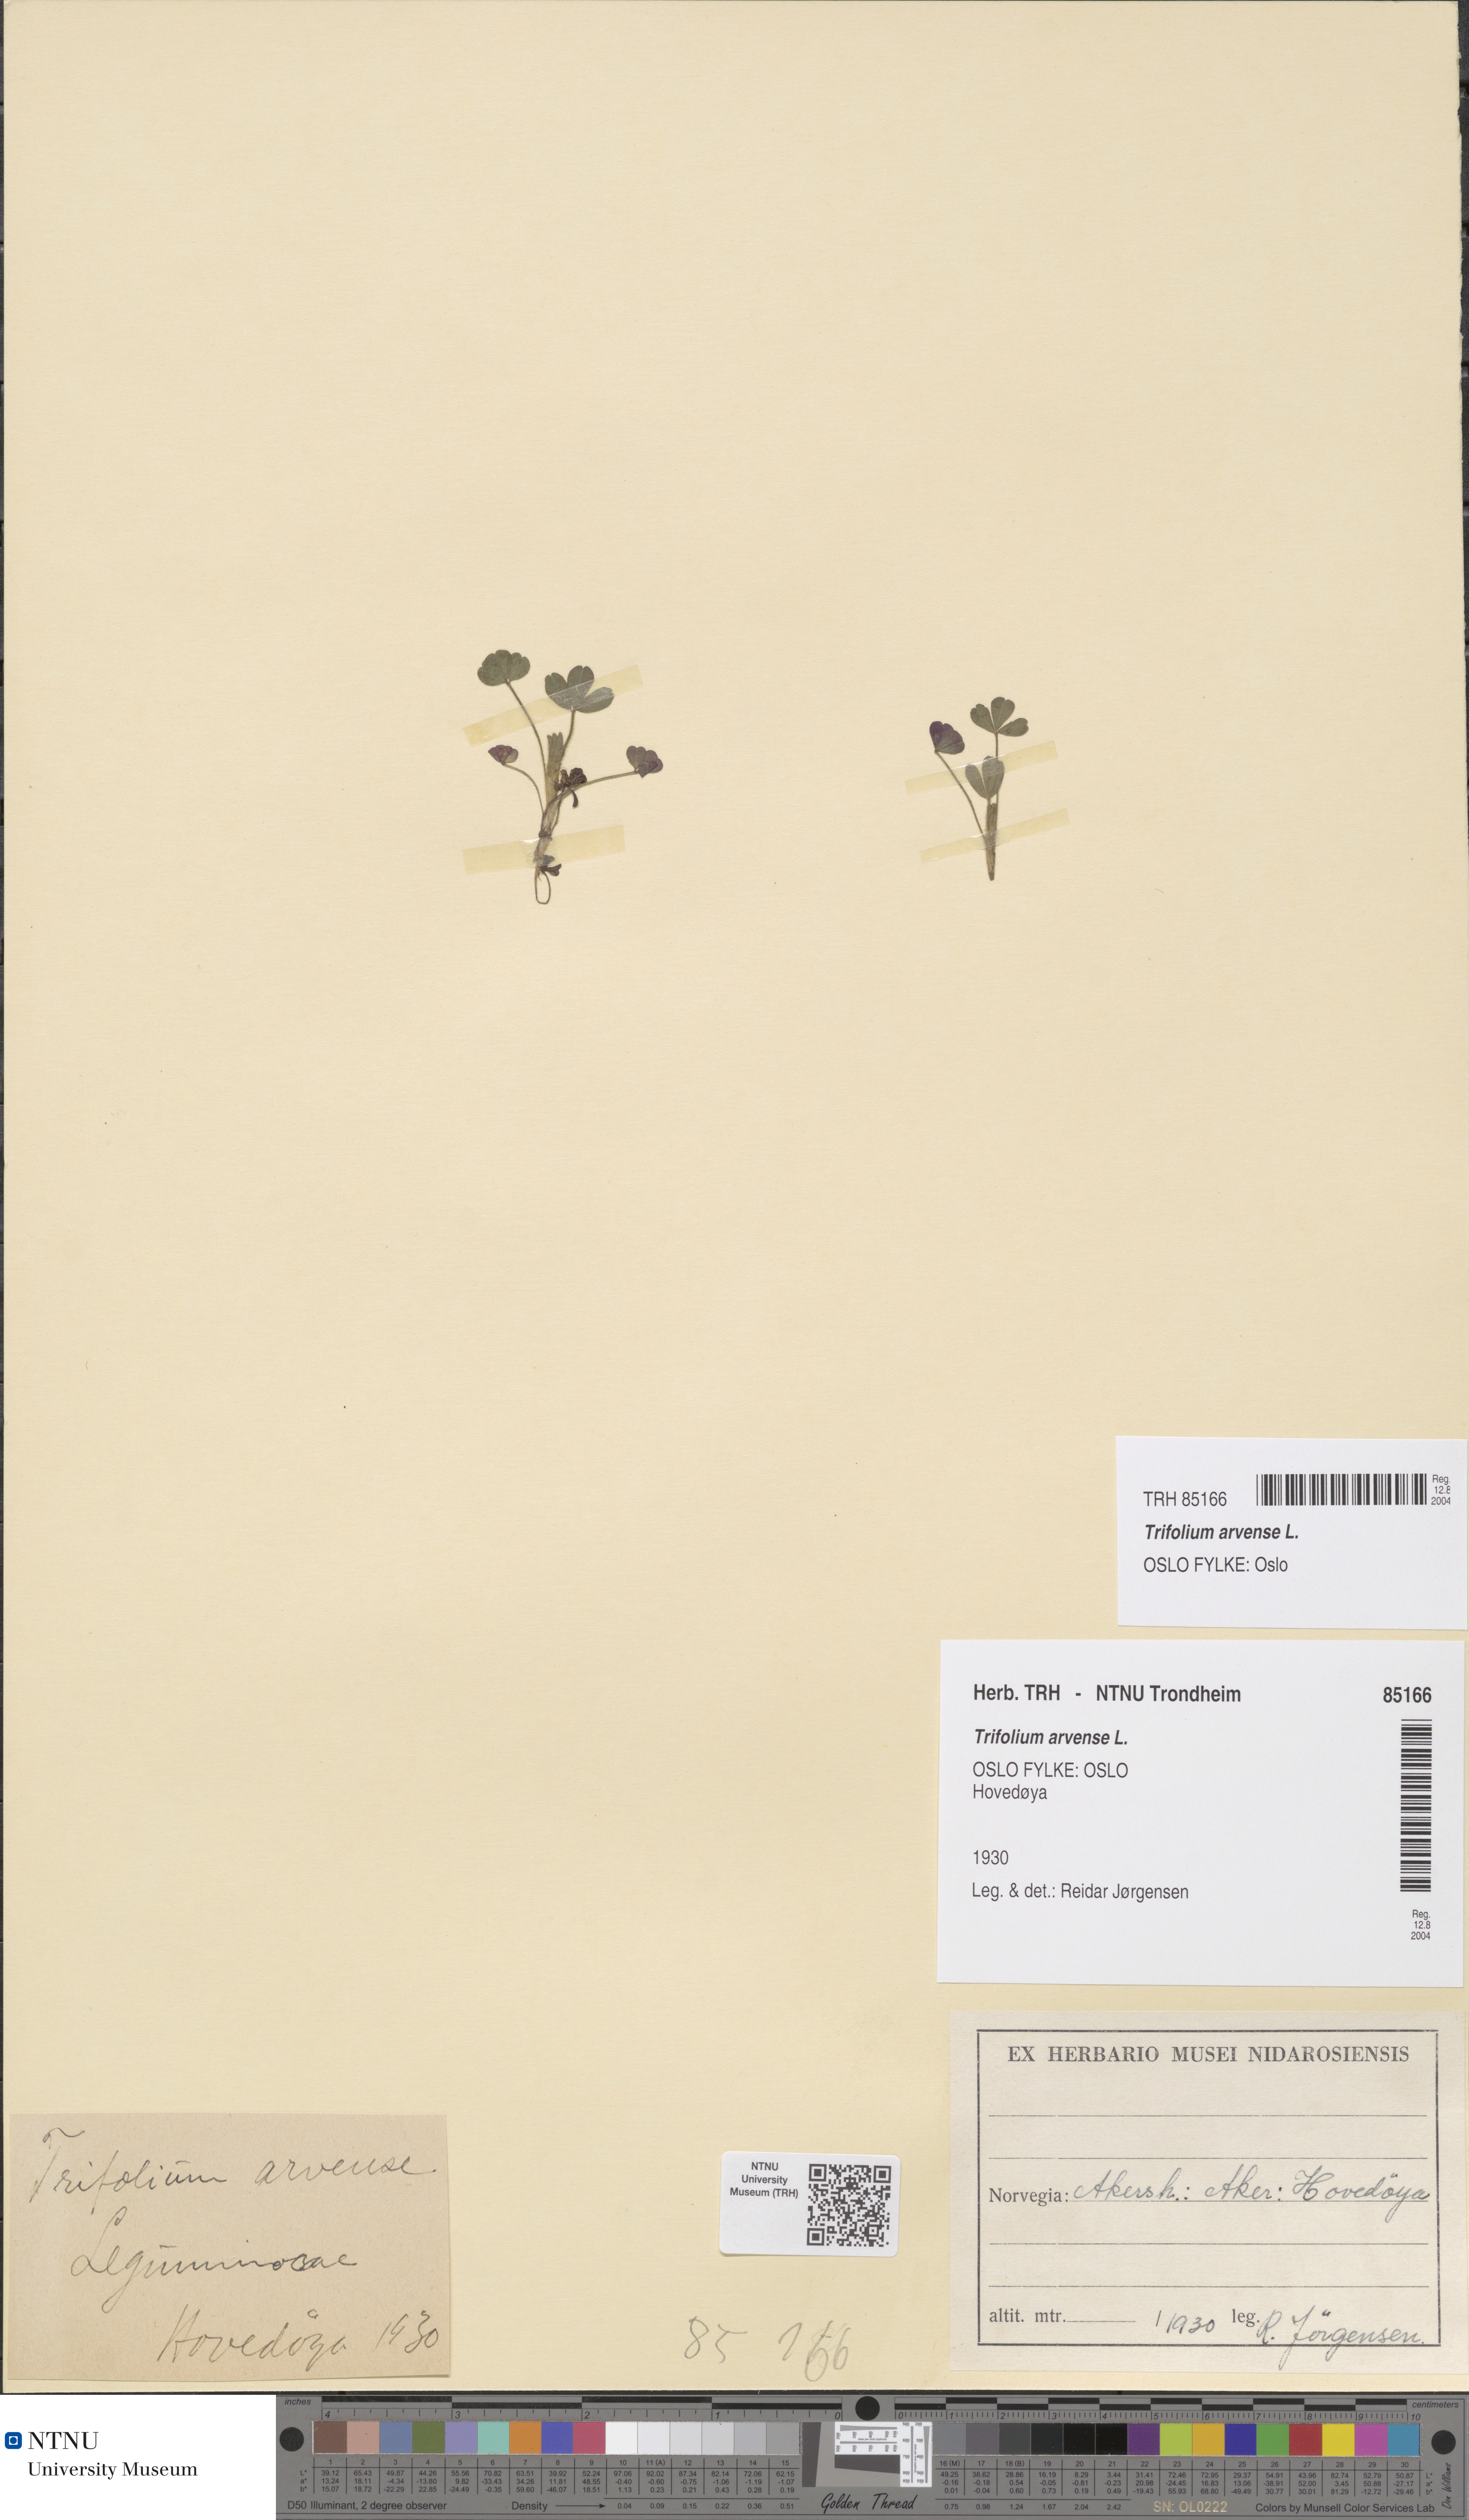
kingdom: Plantae
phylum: Tracheophyta
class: Magnoliopsida
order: Fabales
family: Fabaceae
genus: Trifolium
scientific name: Trifolium arvense
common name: Hare's-foot clover
